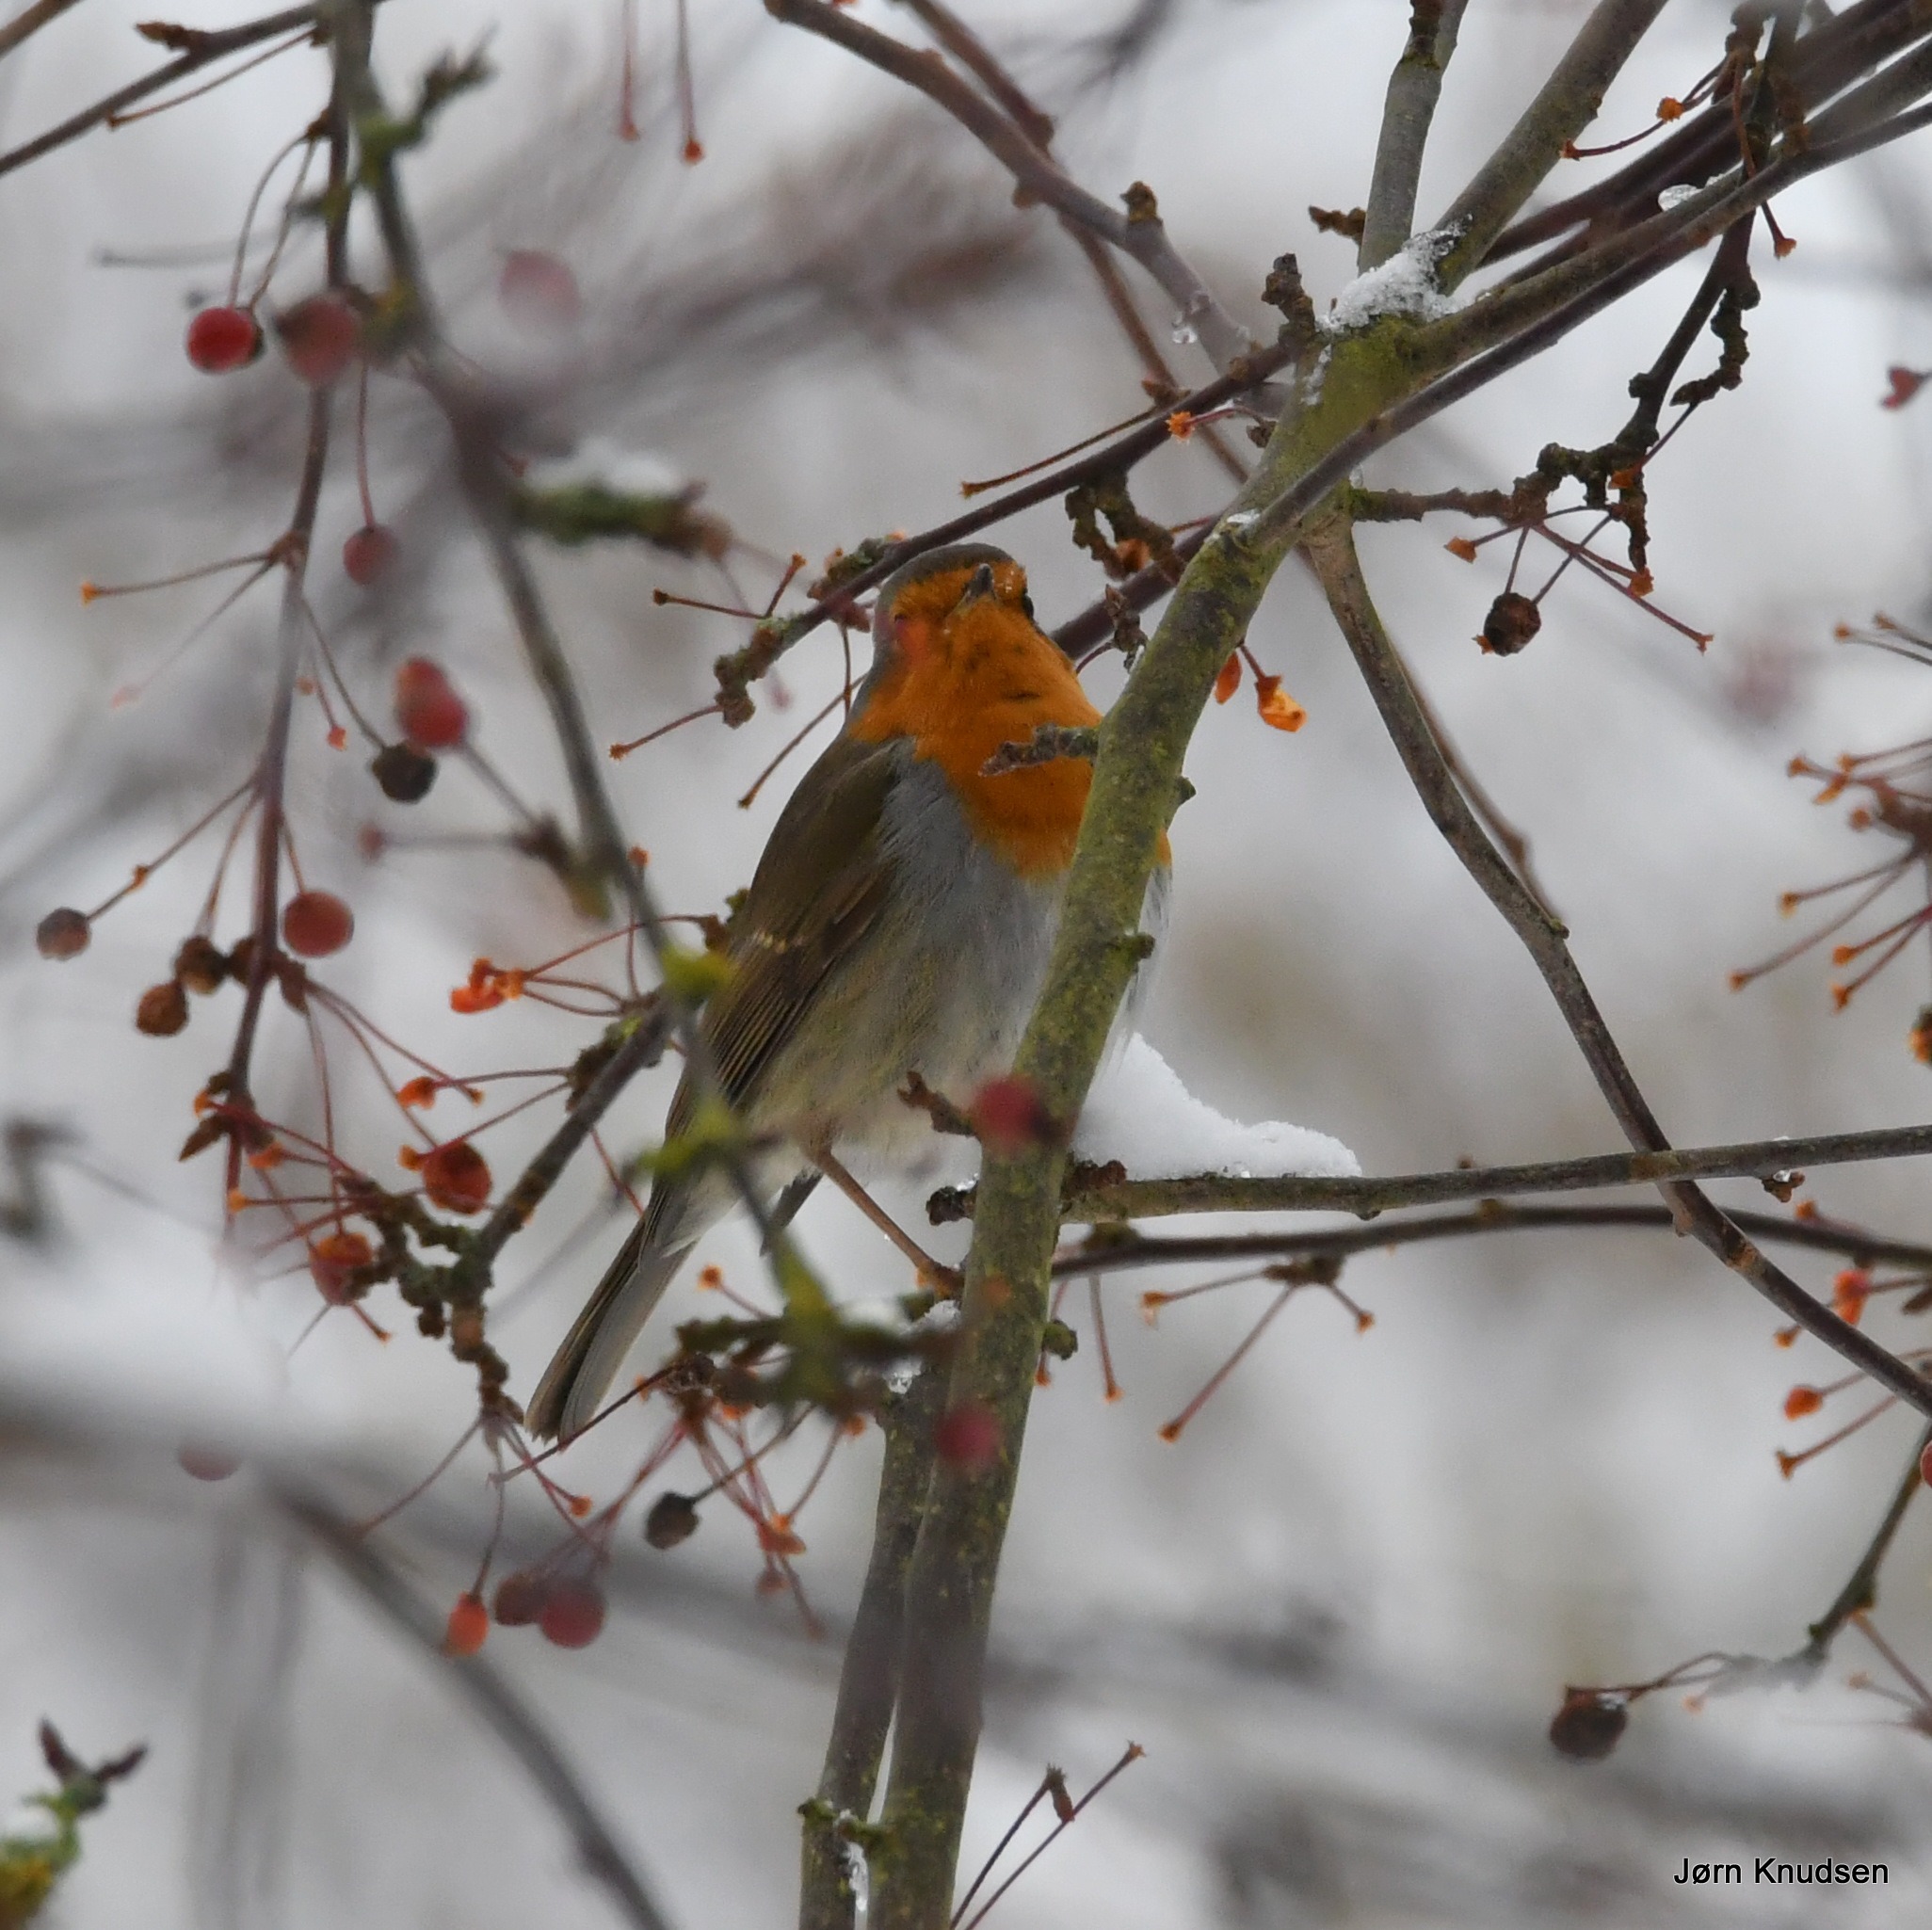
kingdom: Animalia
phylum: Chordata
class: Aves
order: Passeriformes
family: Muscicapidae
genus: Erithacus
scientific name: Erithacus rubecula
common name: Rødhals/rødkælk
